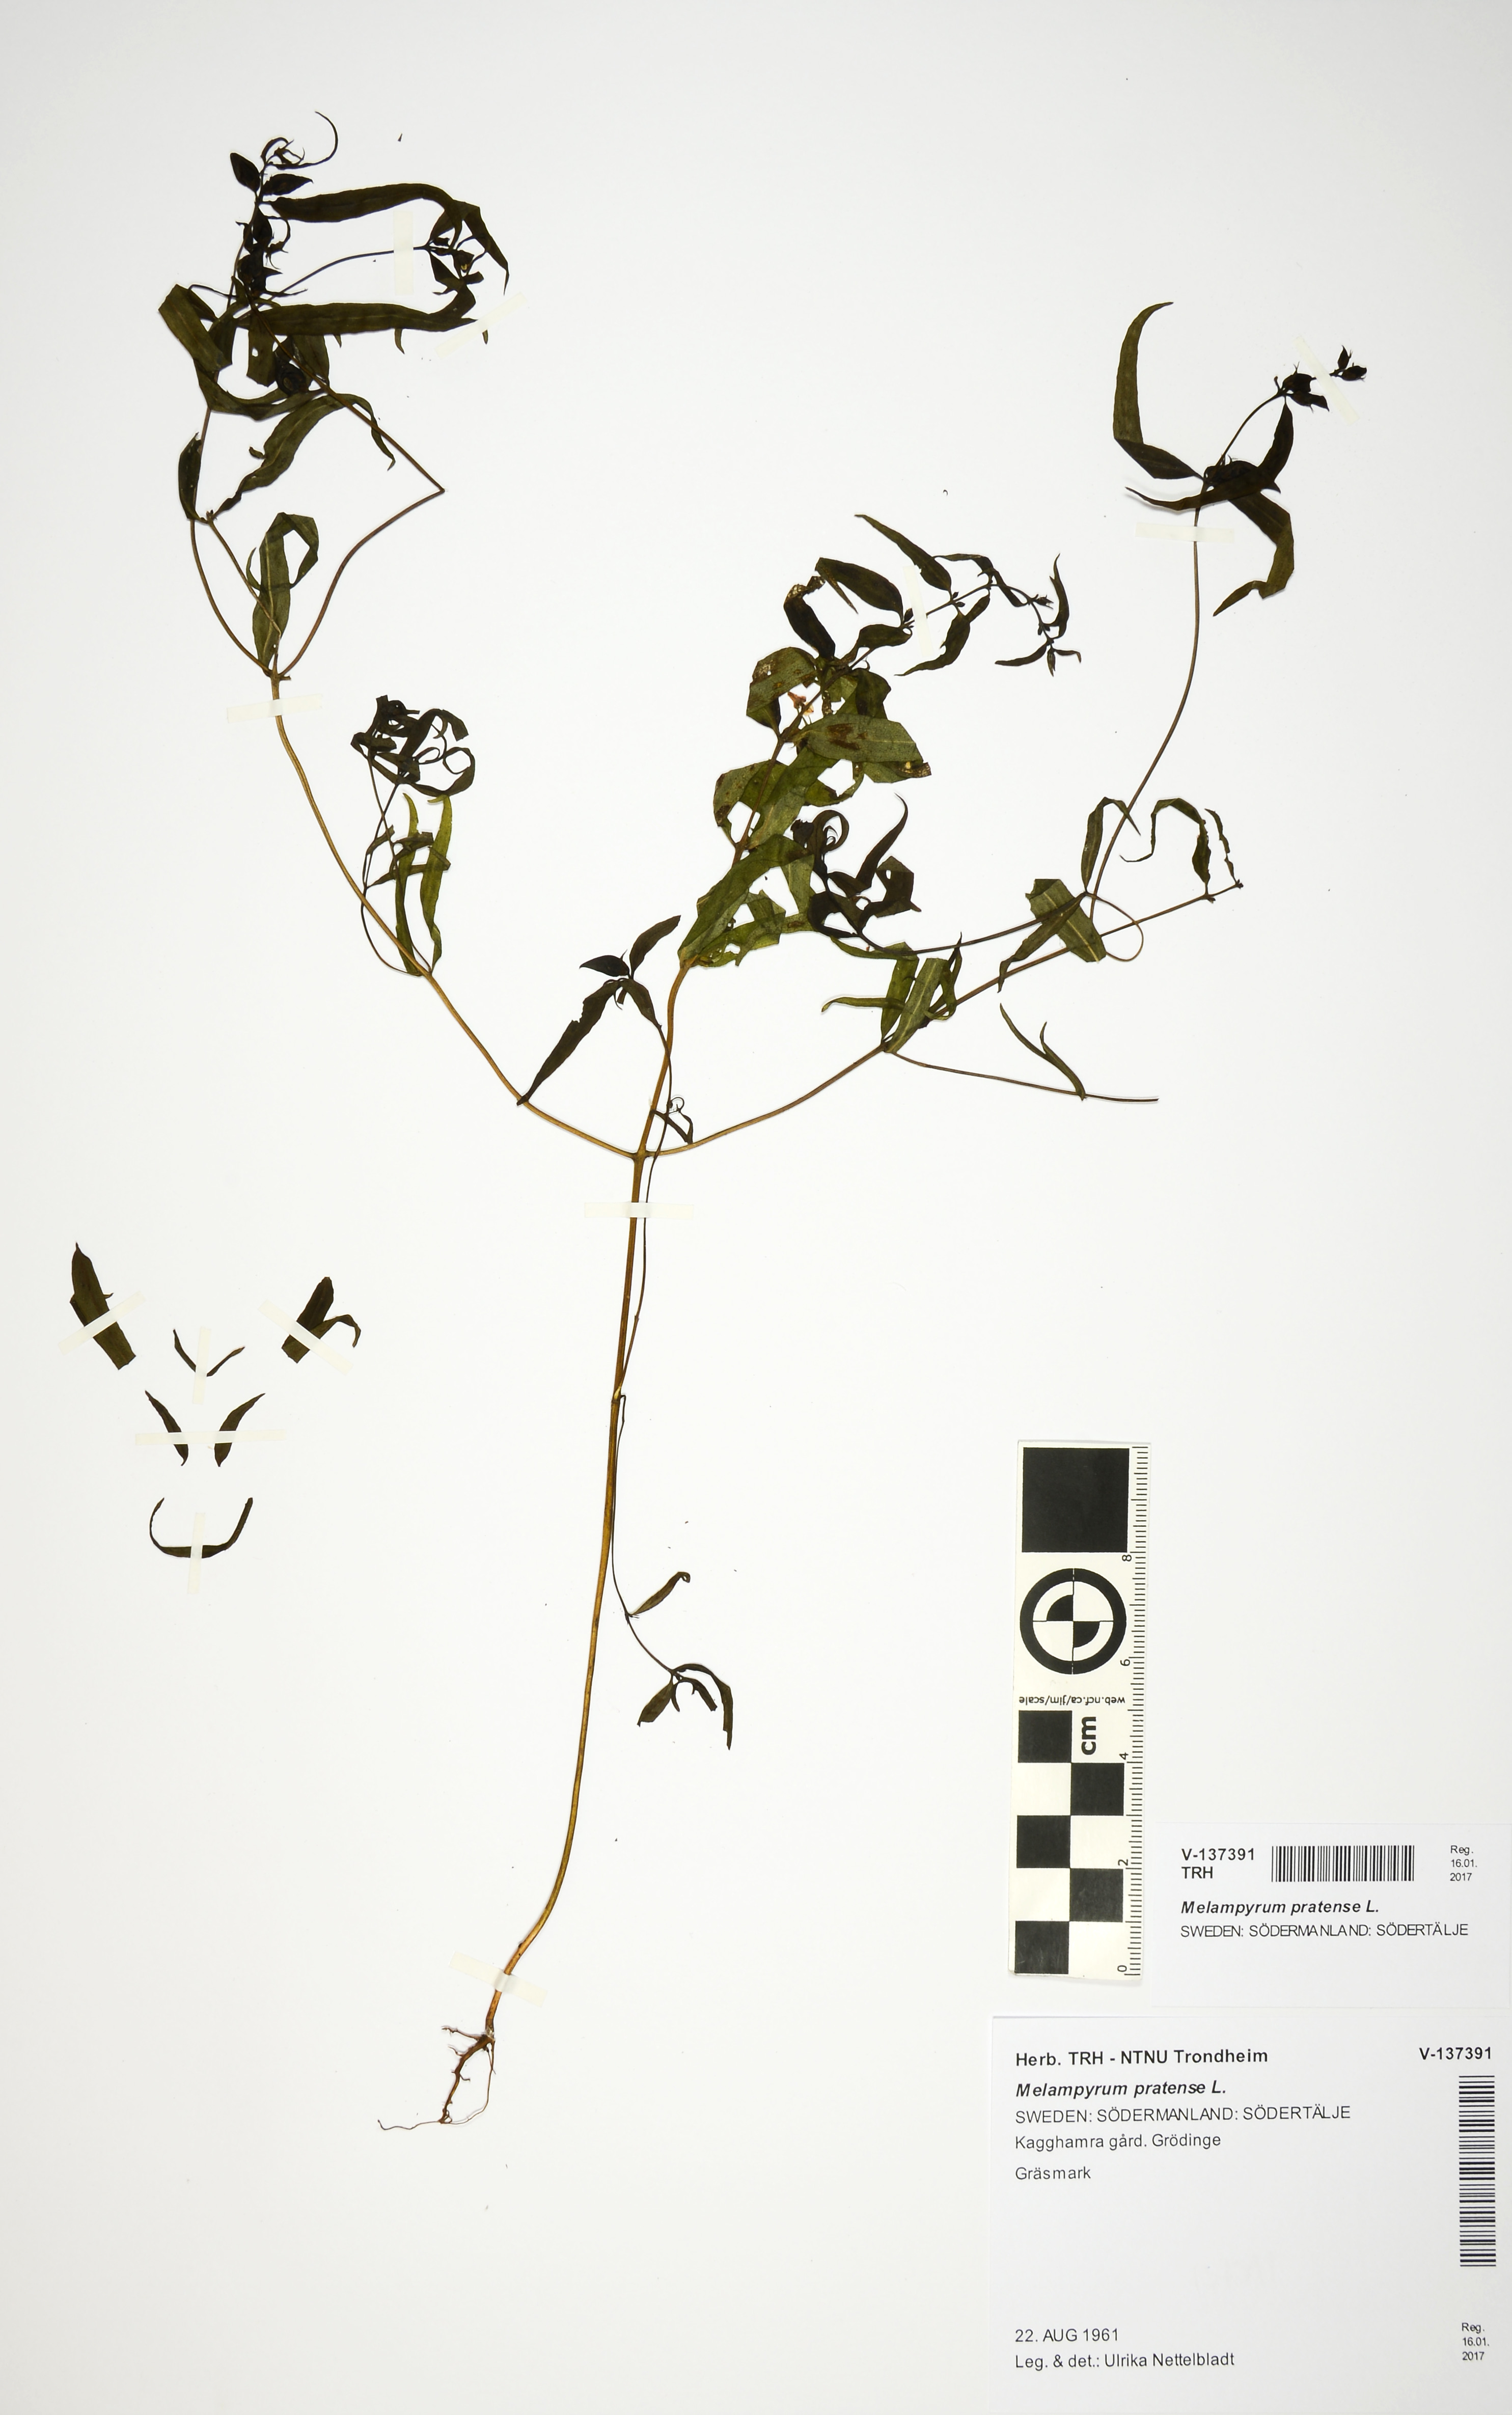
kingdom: Plantae
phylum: Tracheophyta
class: Magnoliopsida
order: Lamiales
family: Orobanchaceae
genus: Melampyrum
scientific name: Melampyrum pratense
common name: Common cow-wheat
